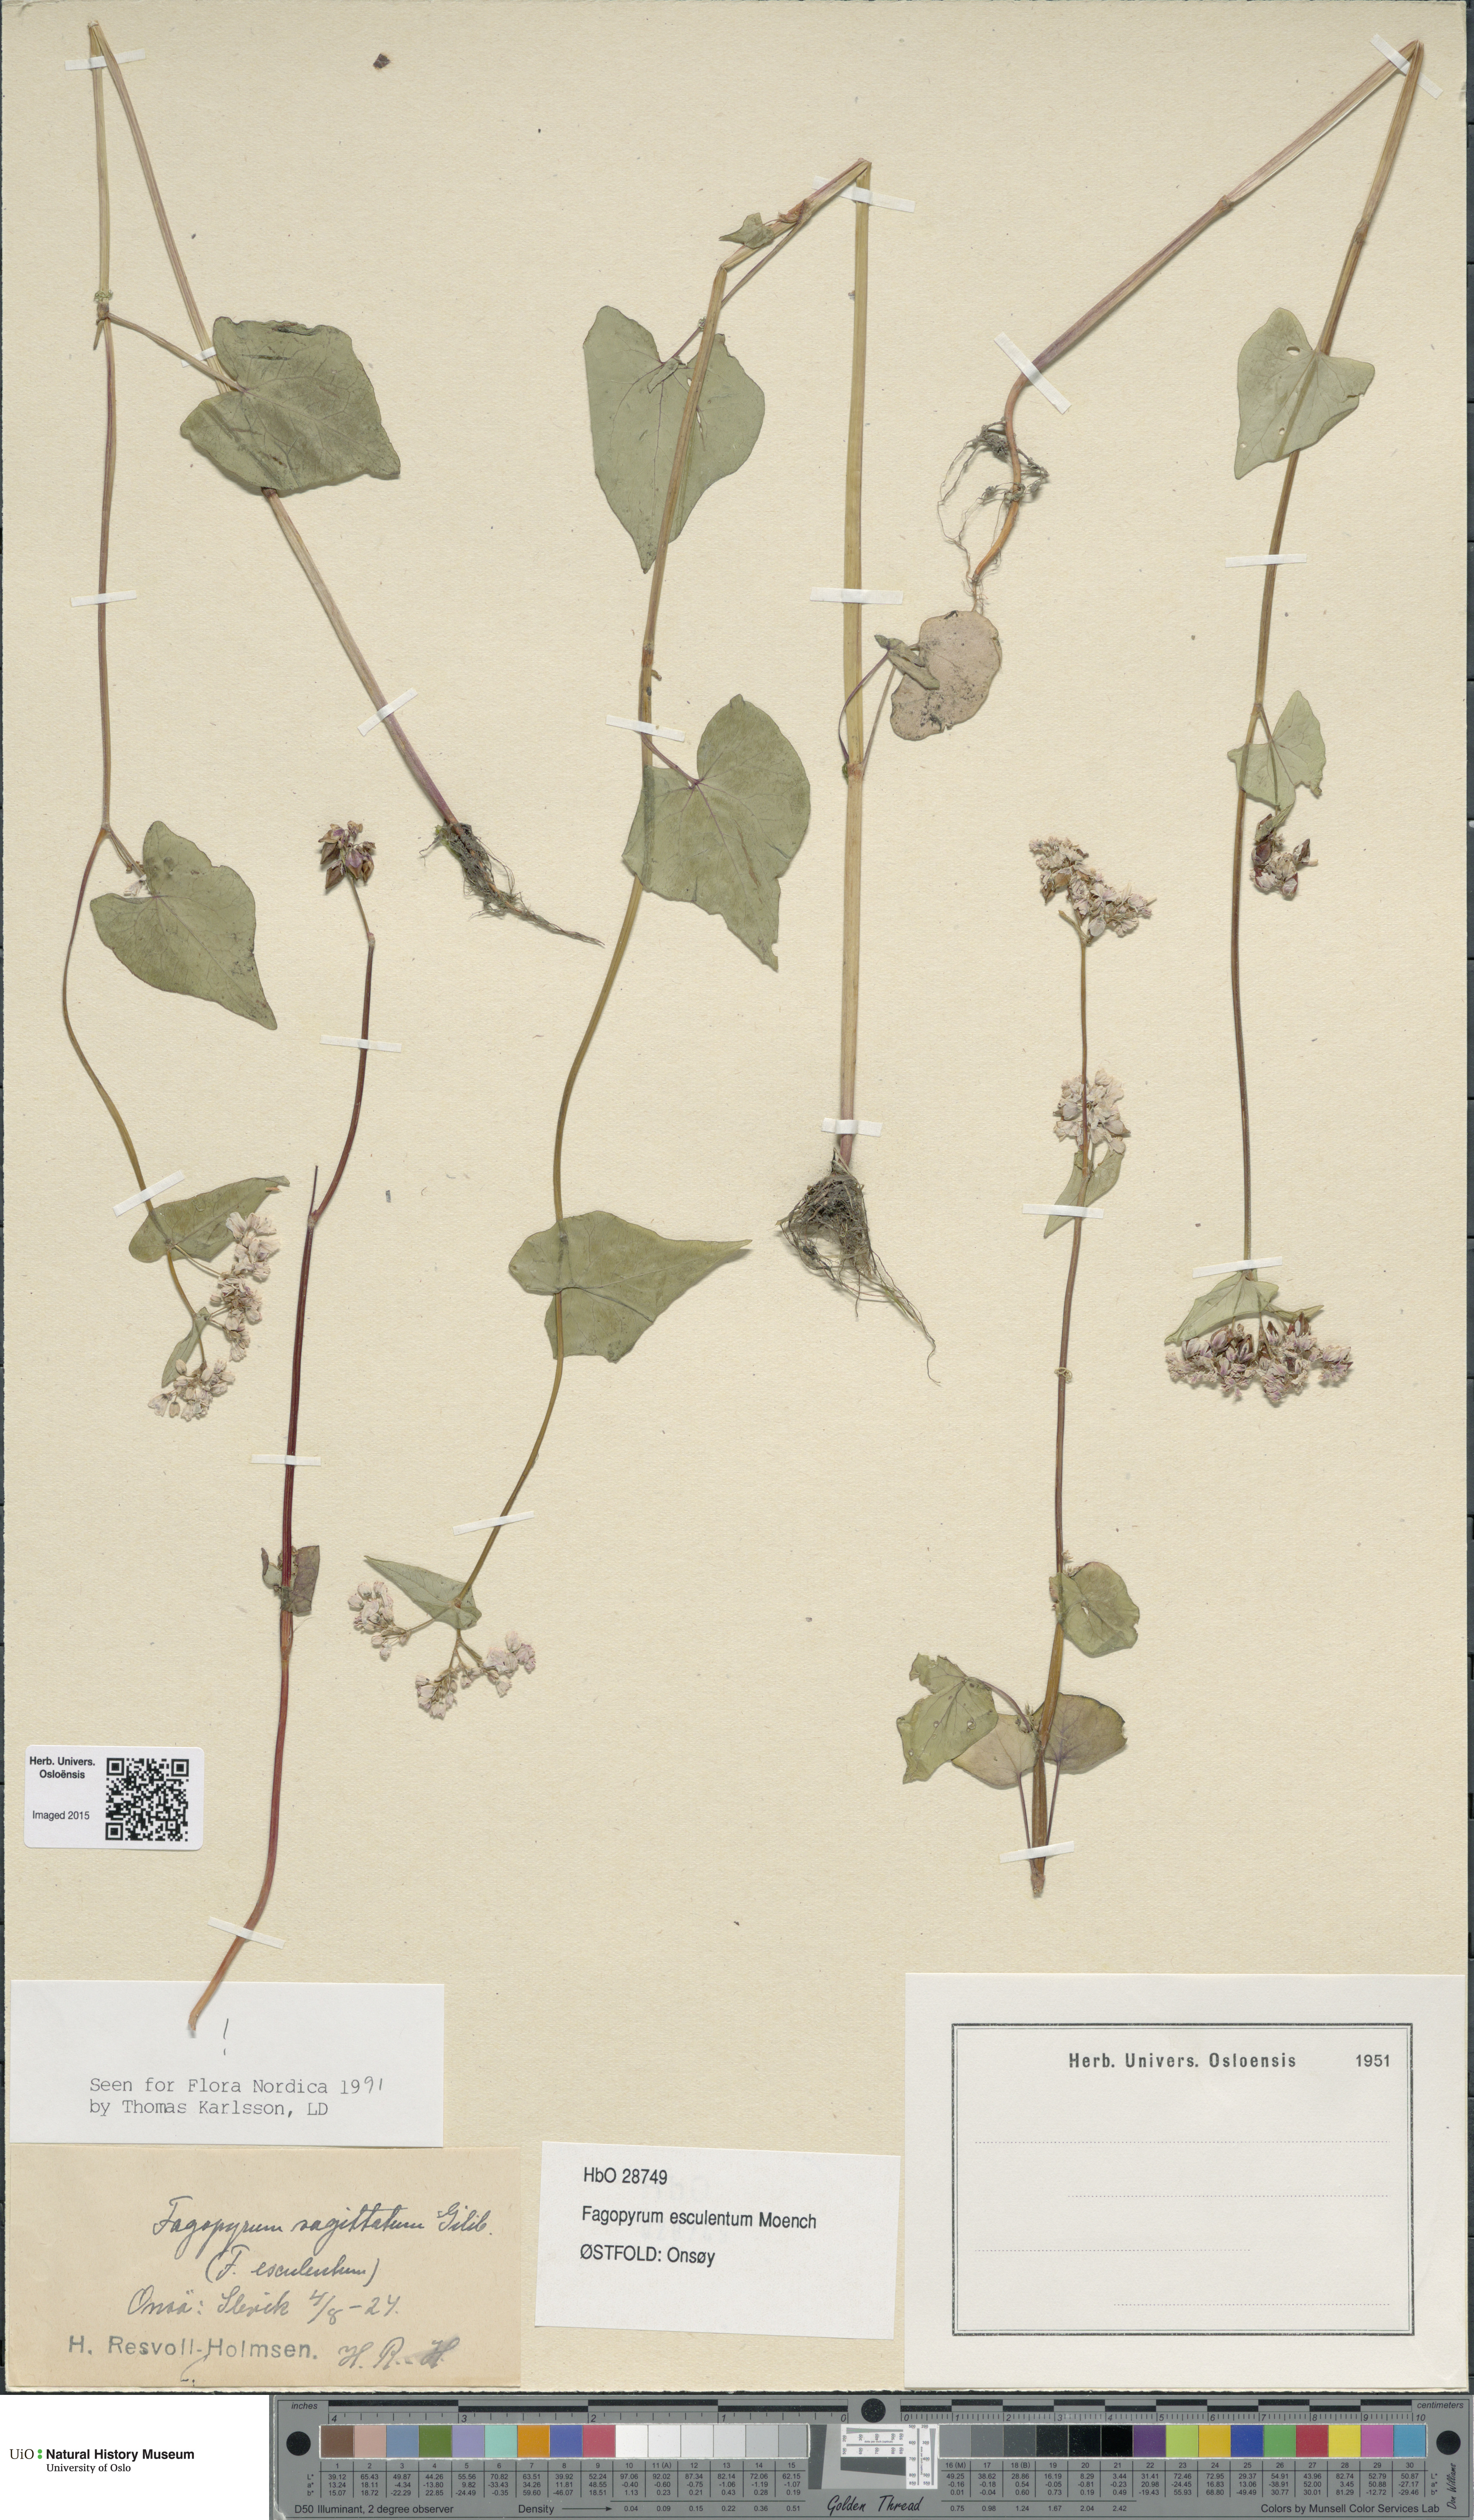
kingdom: Plantae
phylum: Tracheophyta
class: Magnoliopsida
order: Caryophyllales
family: Polygonaceae
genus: Fagopyrum
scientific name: Fagopyrum esculentum
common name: Buckwheat
